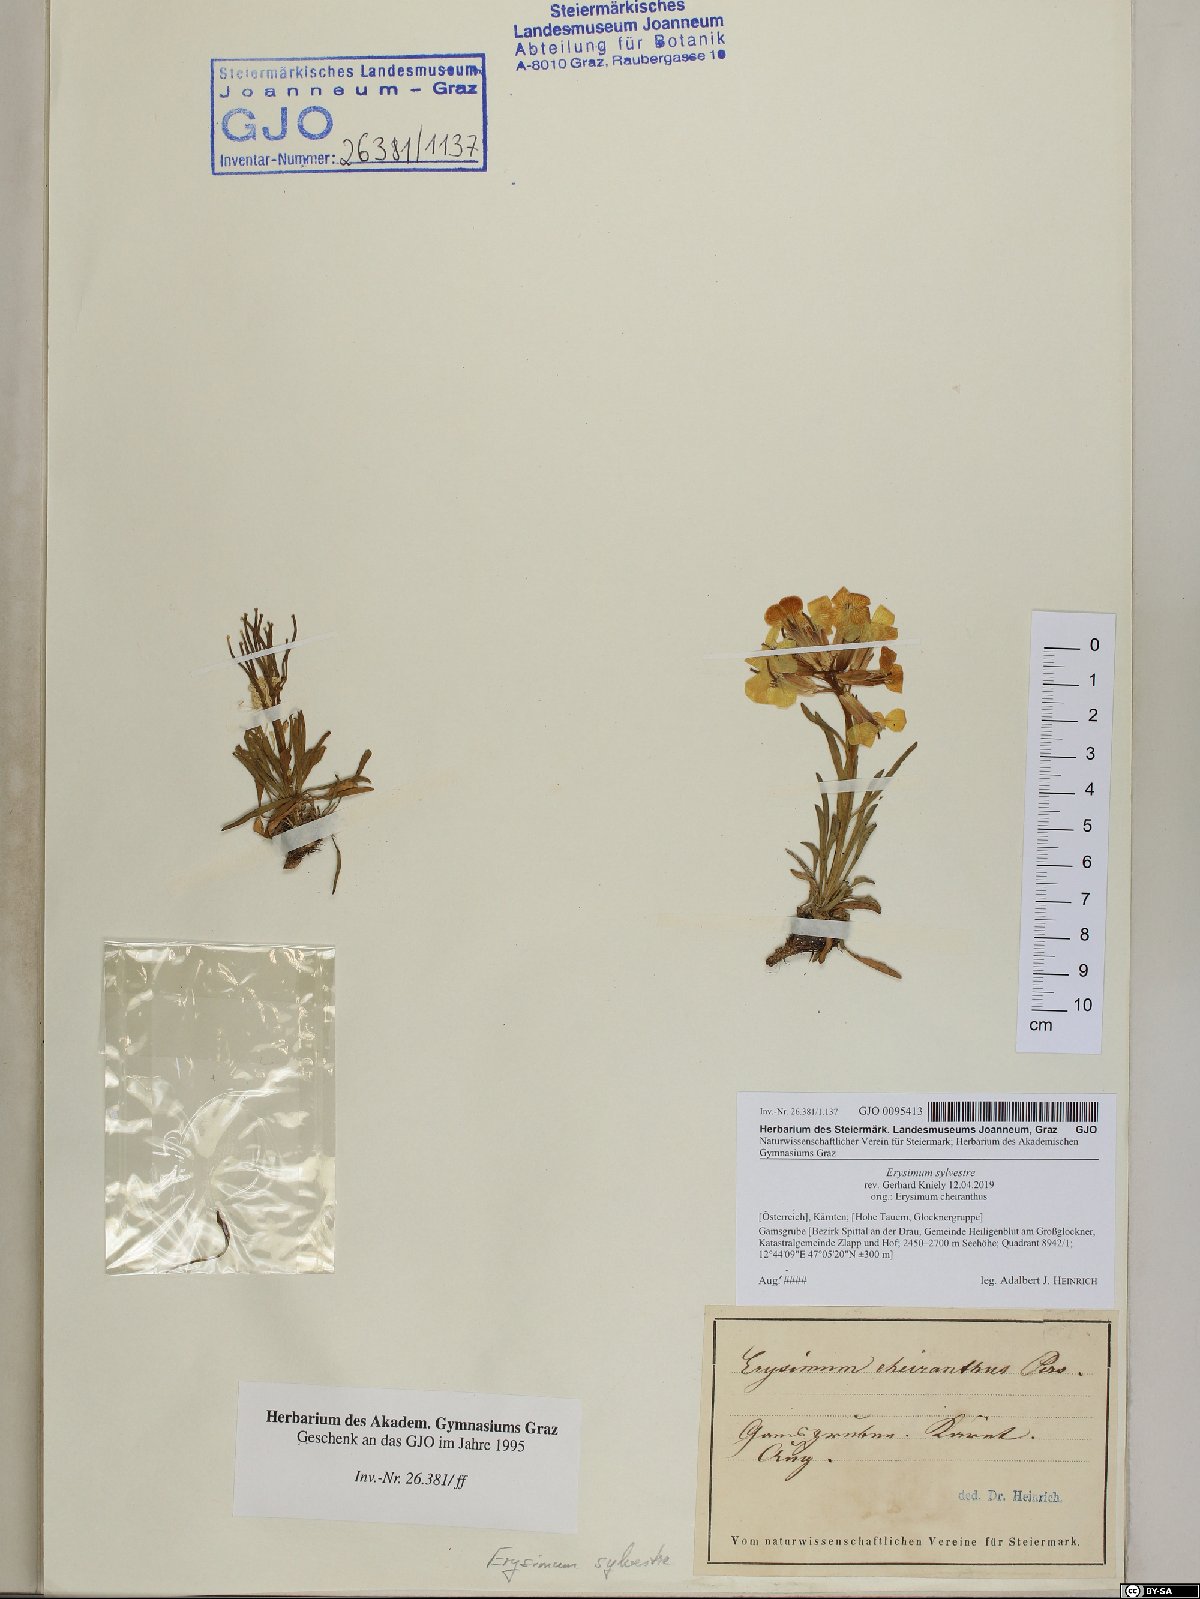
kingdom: Plantae
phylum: Tracheophyta
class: Magnoliopsida
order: Brassicales
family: Brassicaceae
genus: Erysimum
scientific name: Erysimum sylvestre
